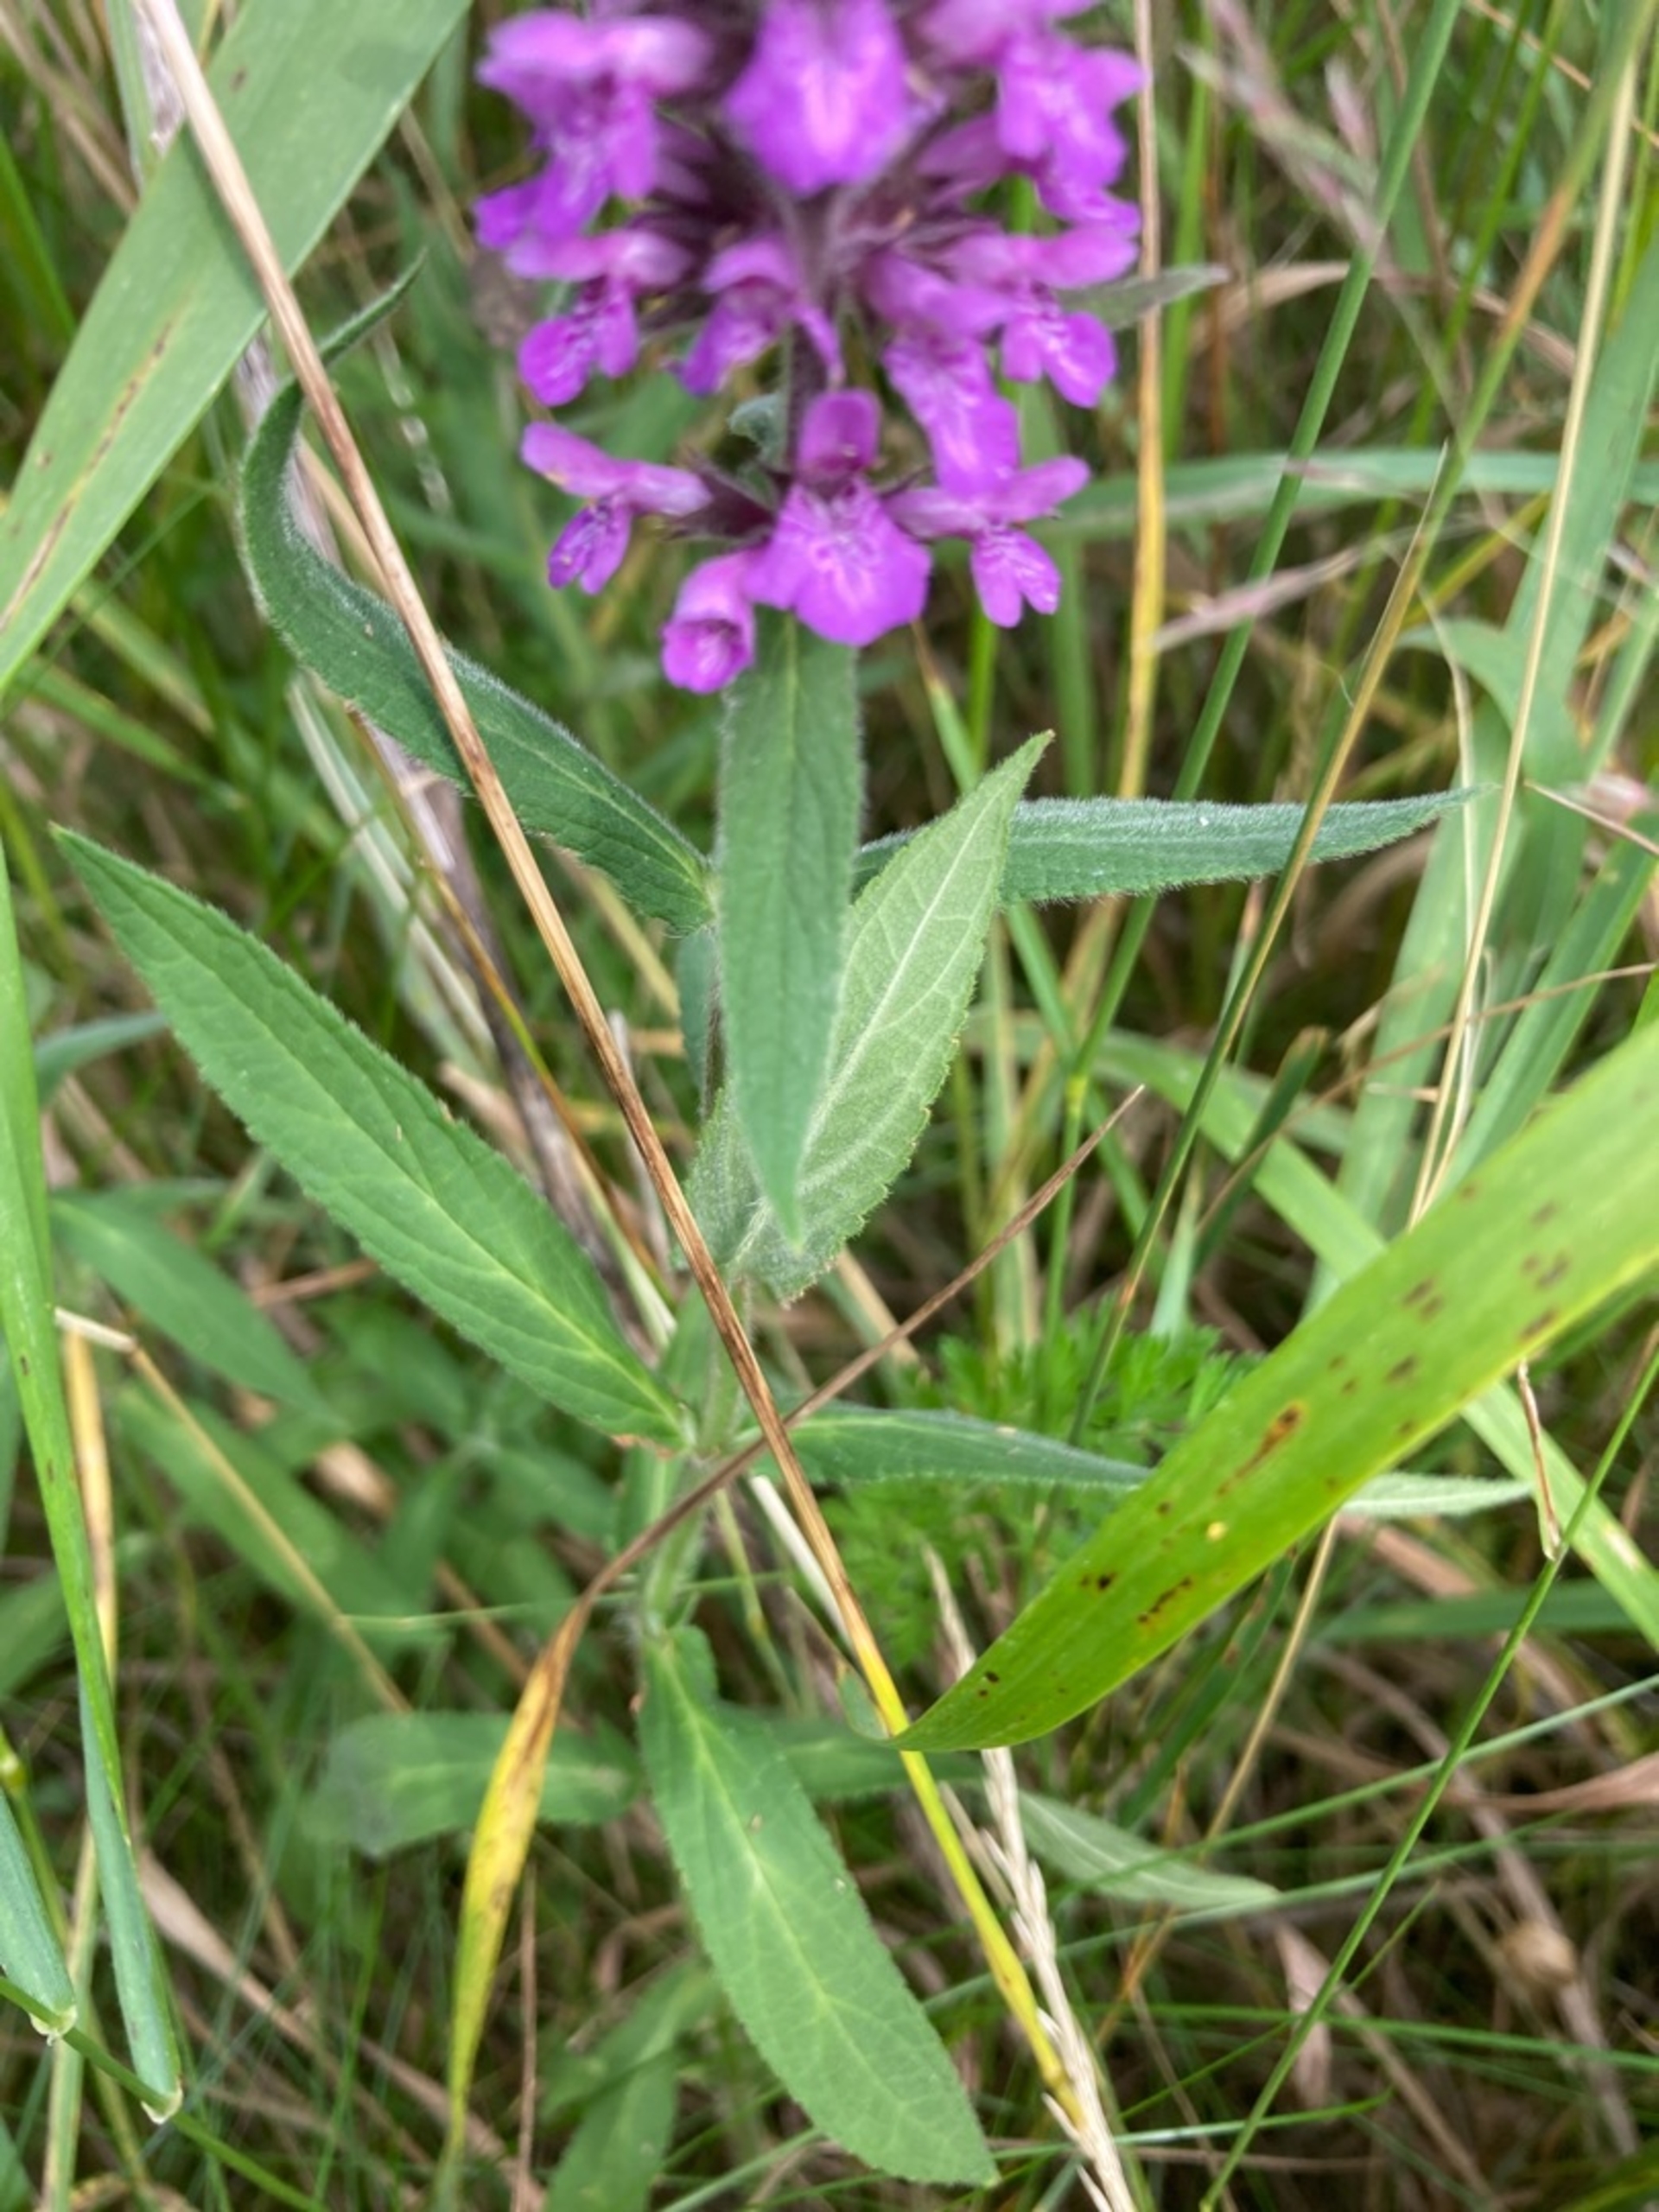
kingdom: Plantae
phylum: Tracheophyta
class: Magnoliopsida
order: Lamiales
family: Lamiaceae
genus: Stachys
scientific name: Stachys palustris
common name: Kær-galtetand
